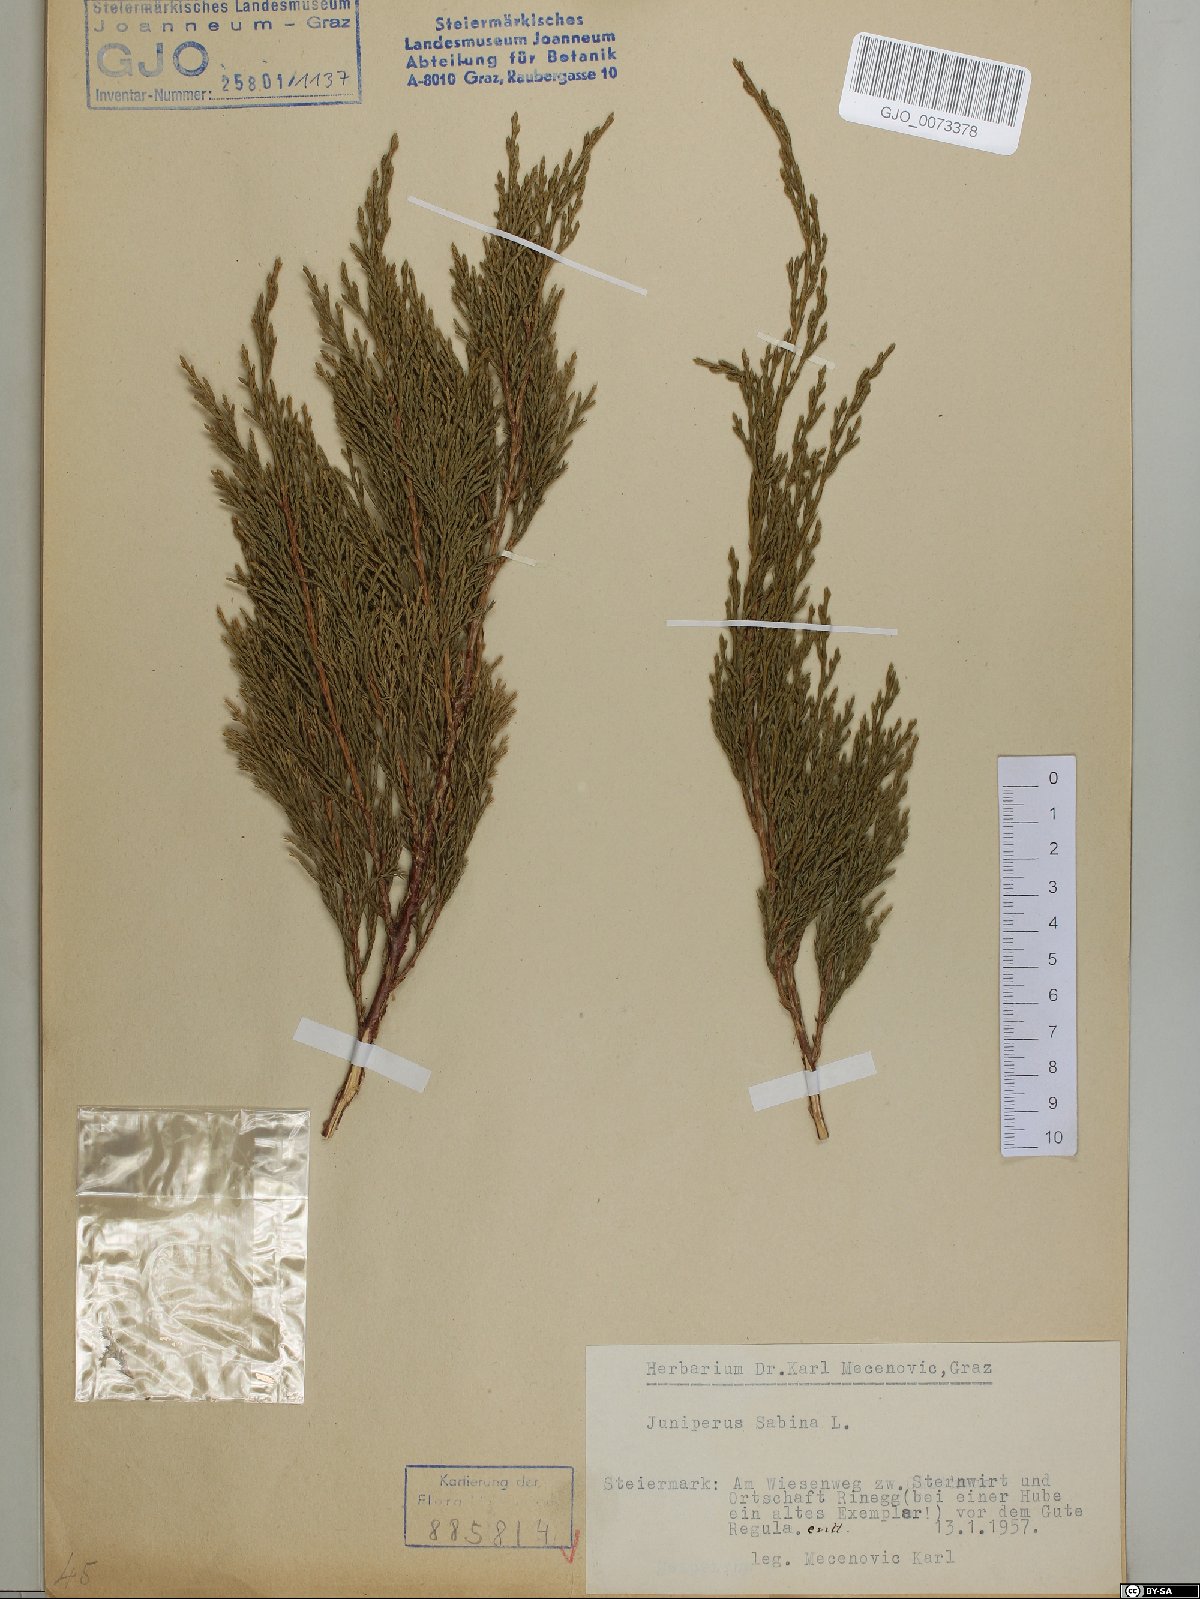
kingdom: Plantae
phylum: Tracheophyta
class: Pinopsida
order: Pinales
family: Cupressaceae
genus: Juniperus
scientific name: Juniperus sabina
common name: Savin
